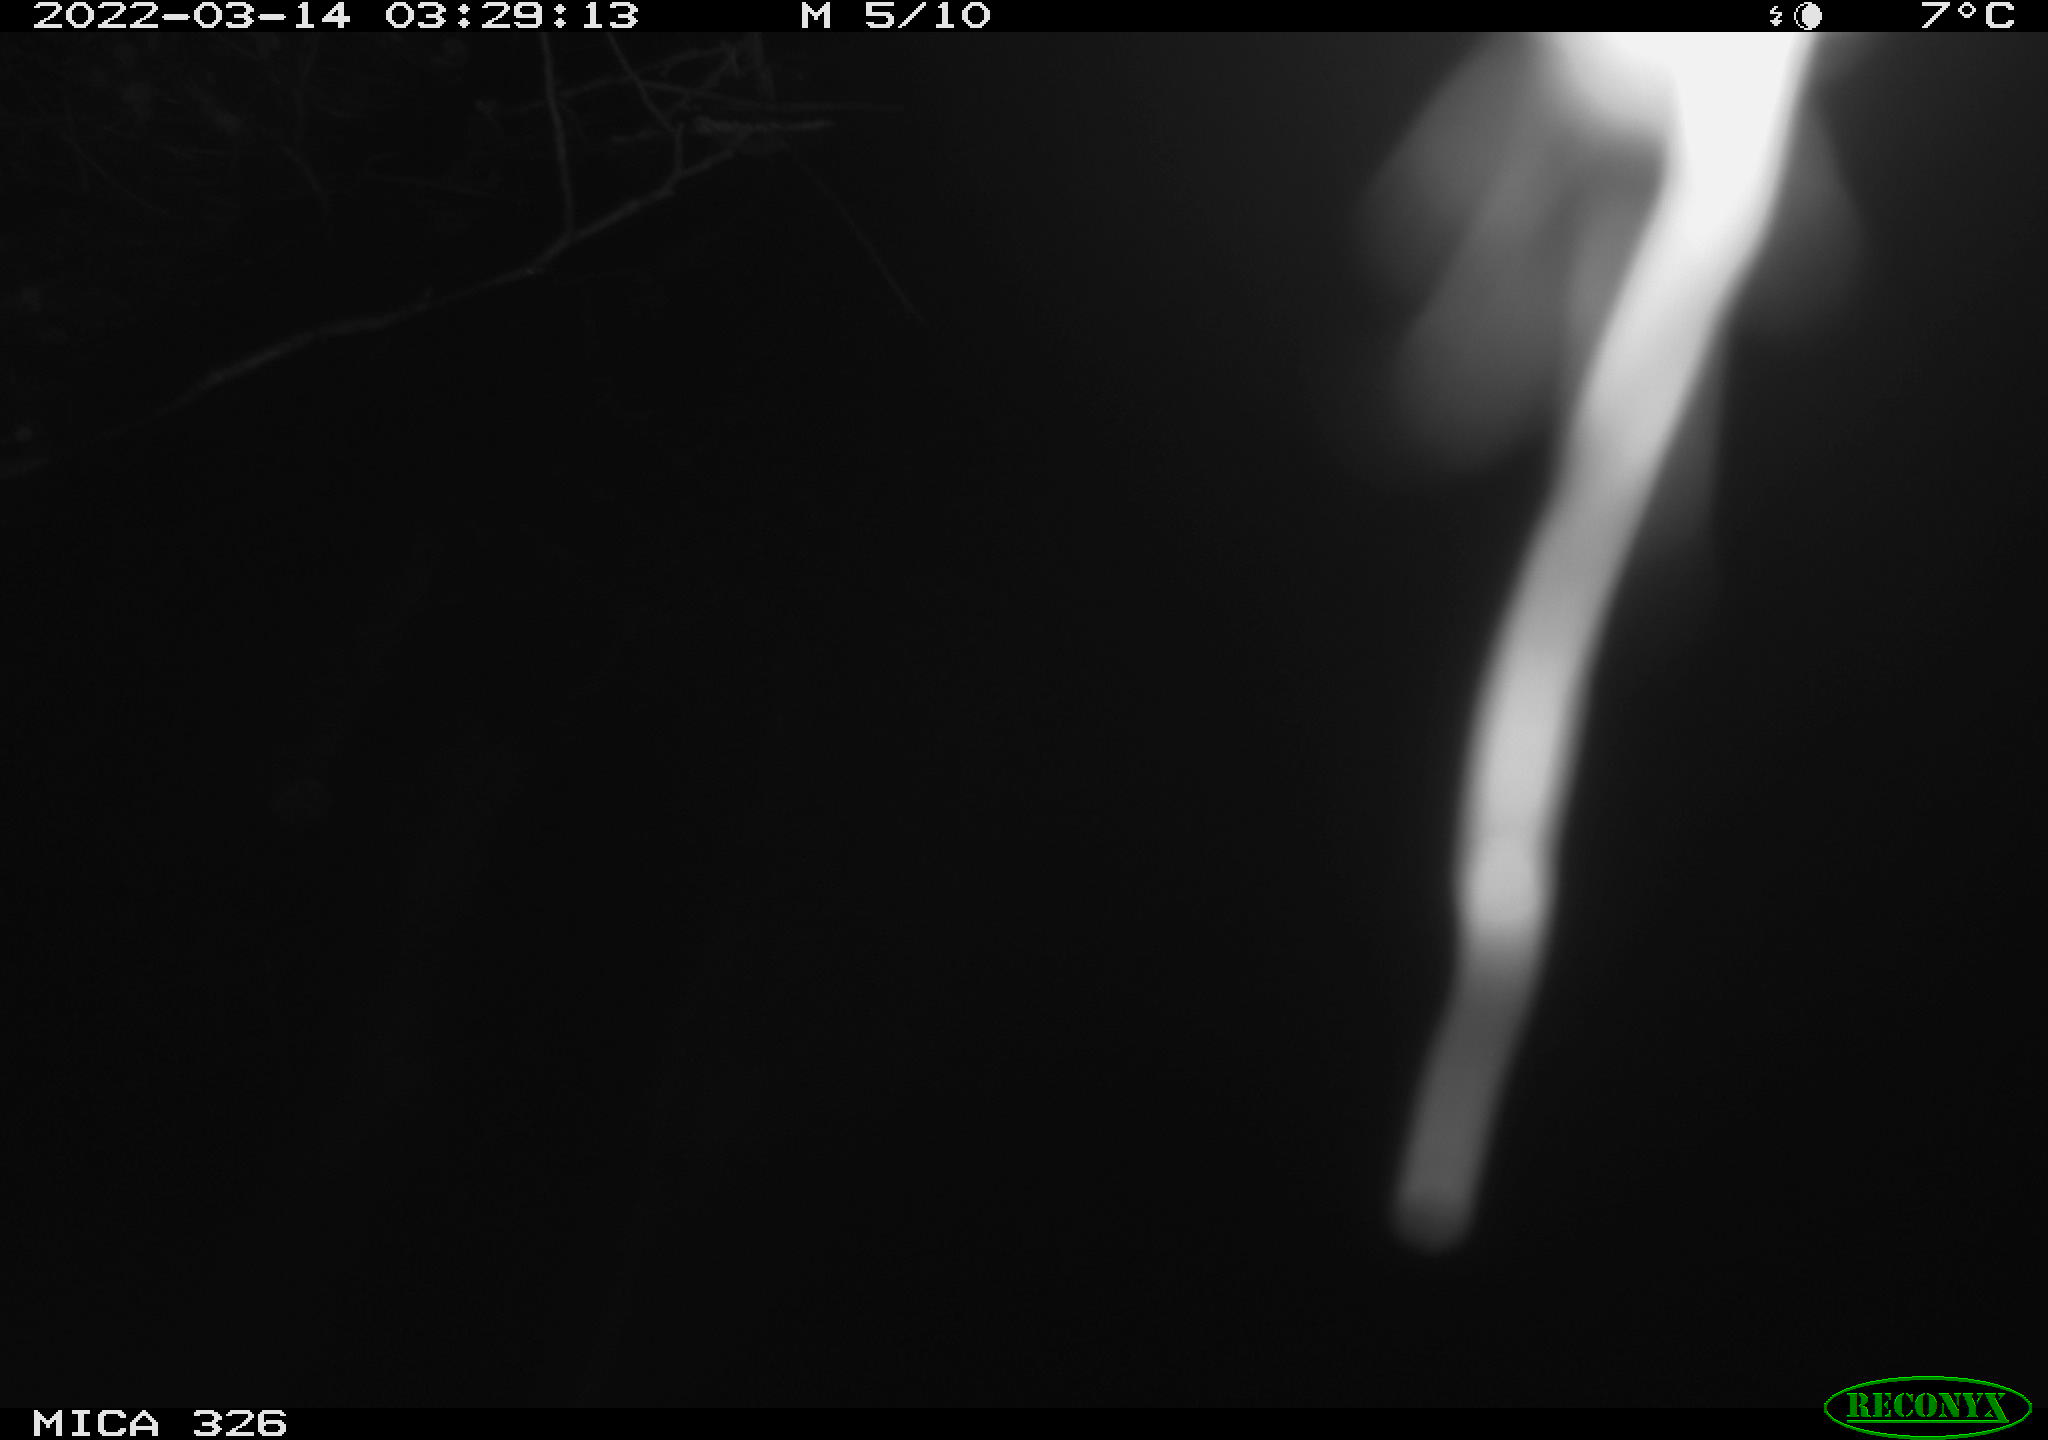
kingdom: Animalia
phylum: Chordata
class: Mammalia
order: Rodentia
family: Cricetidae
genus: Ondatra
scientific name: Ondatra zibethicus
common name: Muskrat
